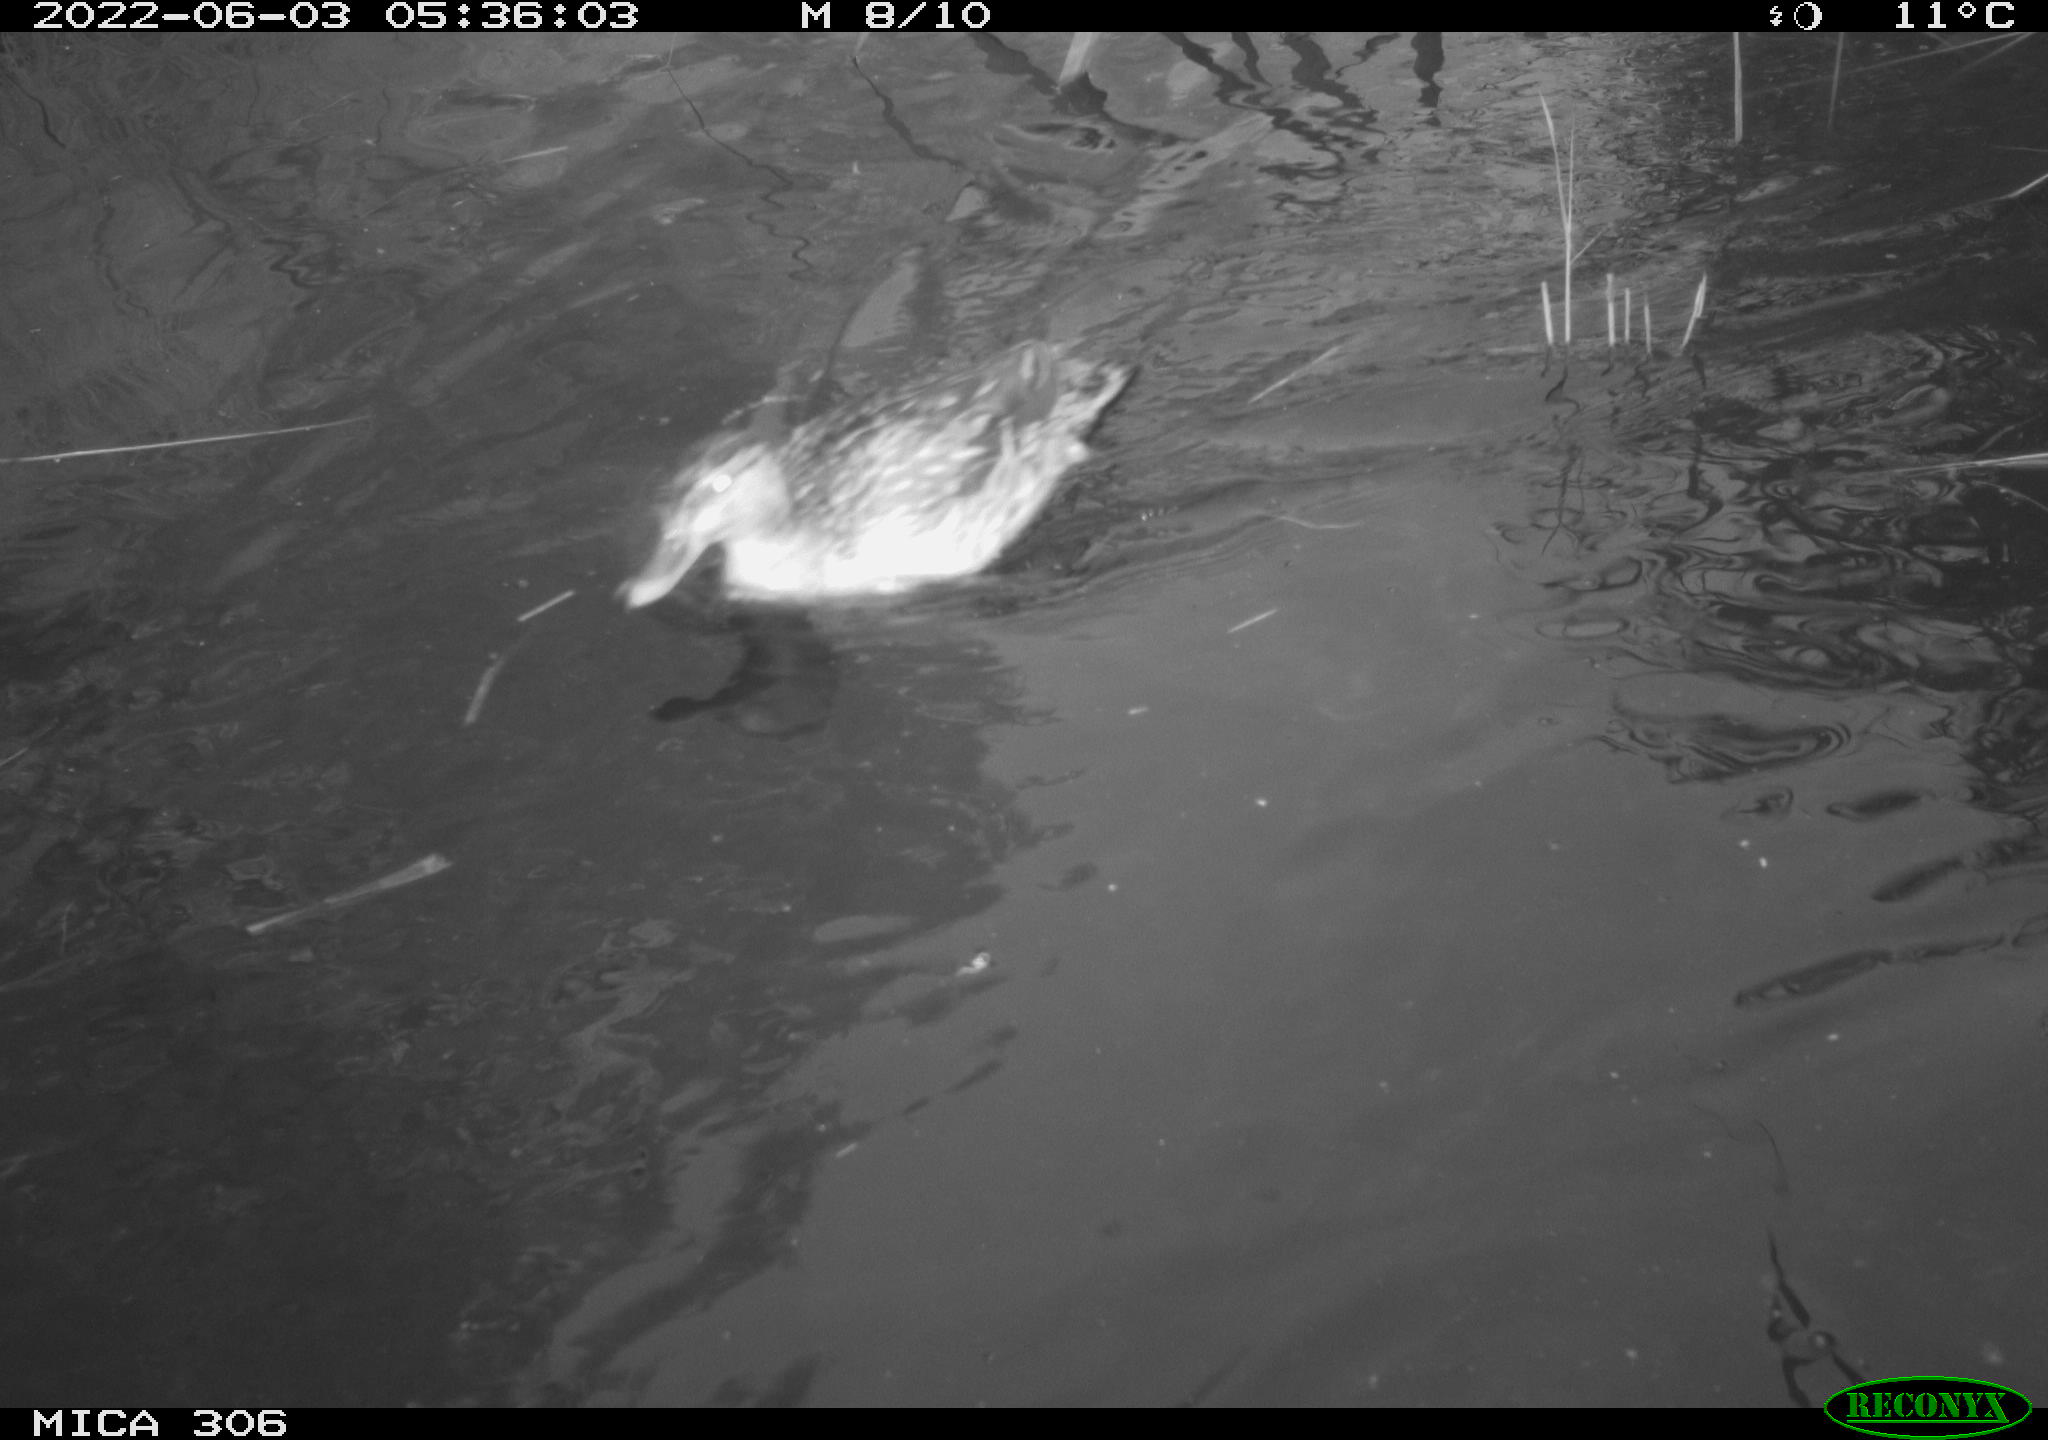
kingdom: Animalia
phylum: Chordata
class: Aves
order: Anseriformes
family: Anatidae
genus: Anas
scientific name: Anas platyrhynchos
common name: Mallard
